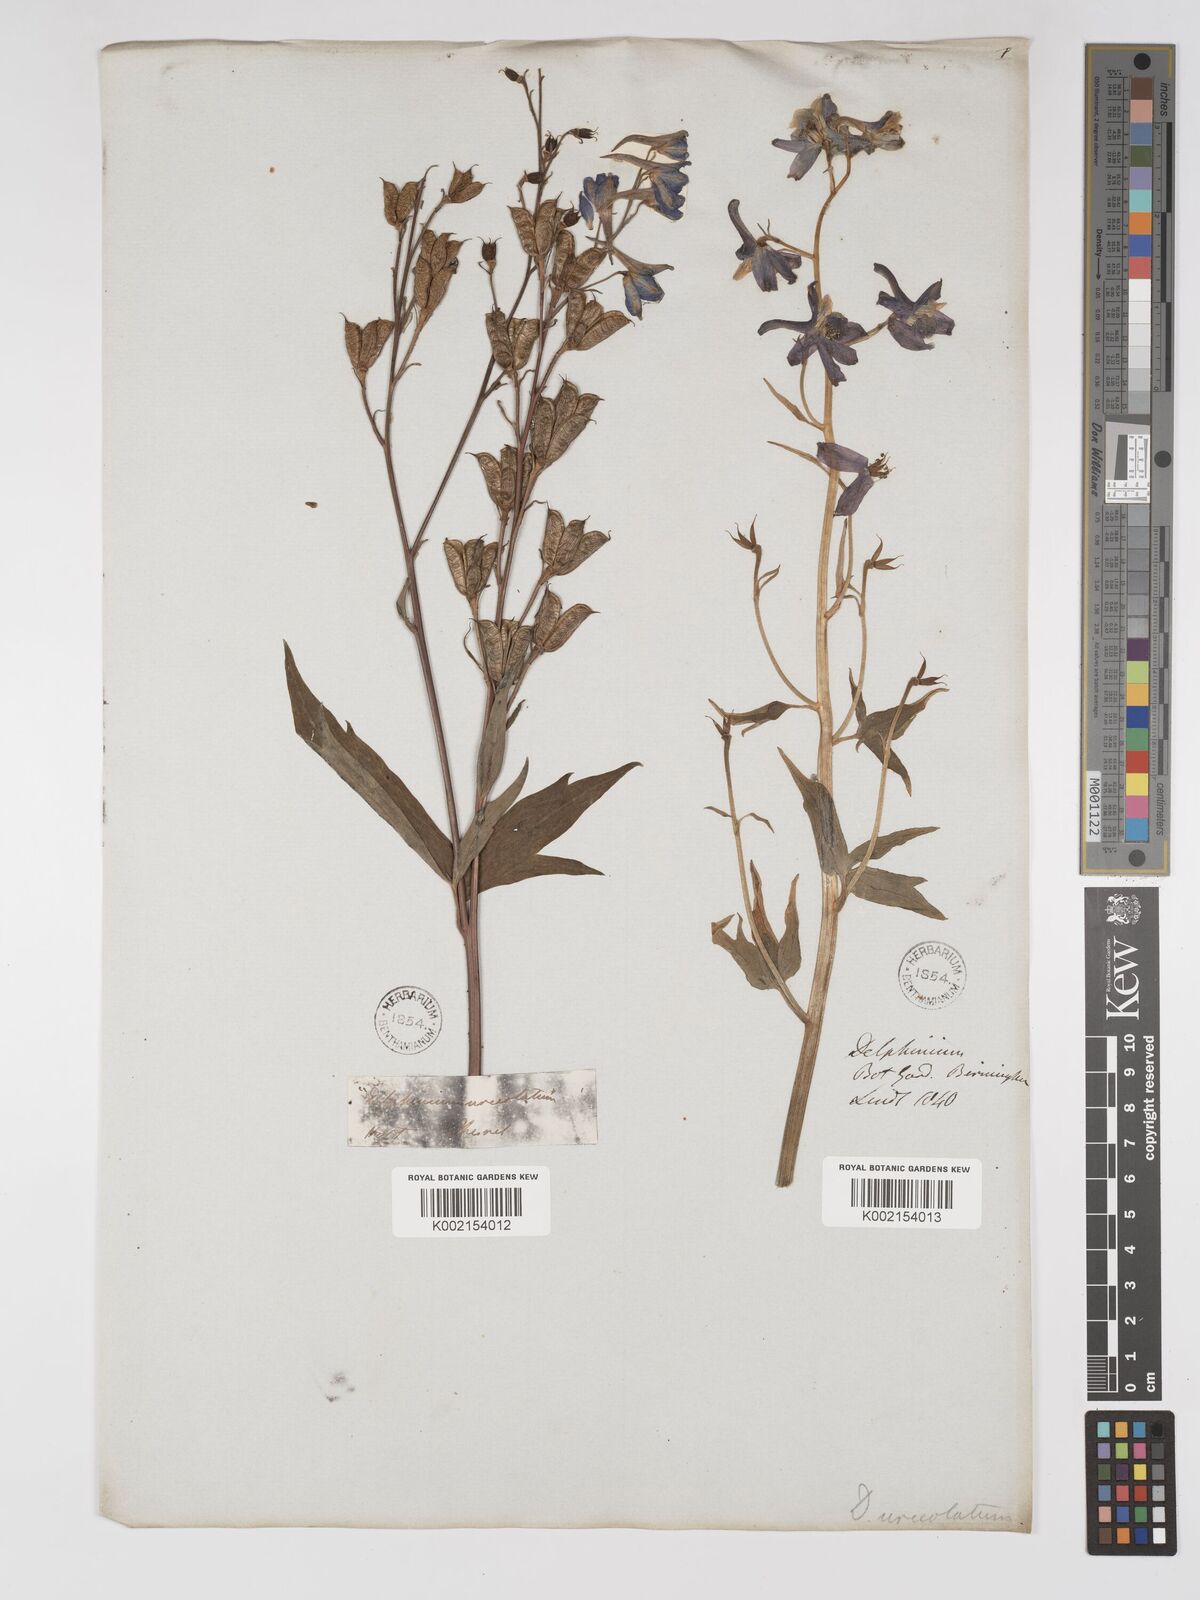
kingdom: Plantae
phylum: Tracheophyta
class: Magnoliopsida
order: Ranunculales
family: Ranunculaceae
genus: Delphinium
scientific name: Delphinium elatum
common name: Candle larkspur
